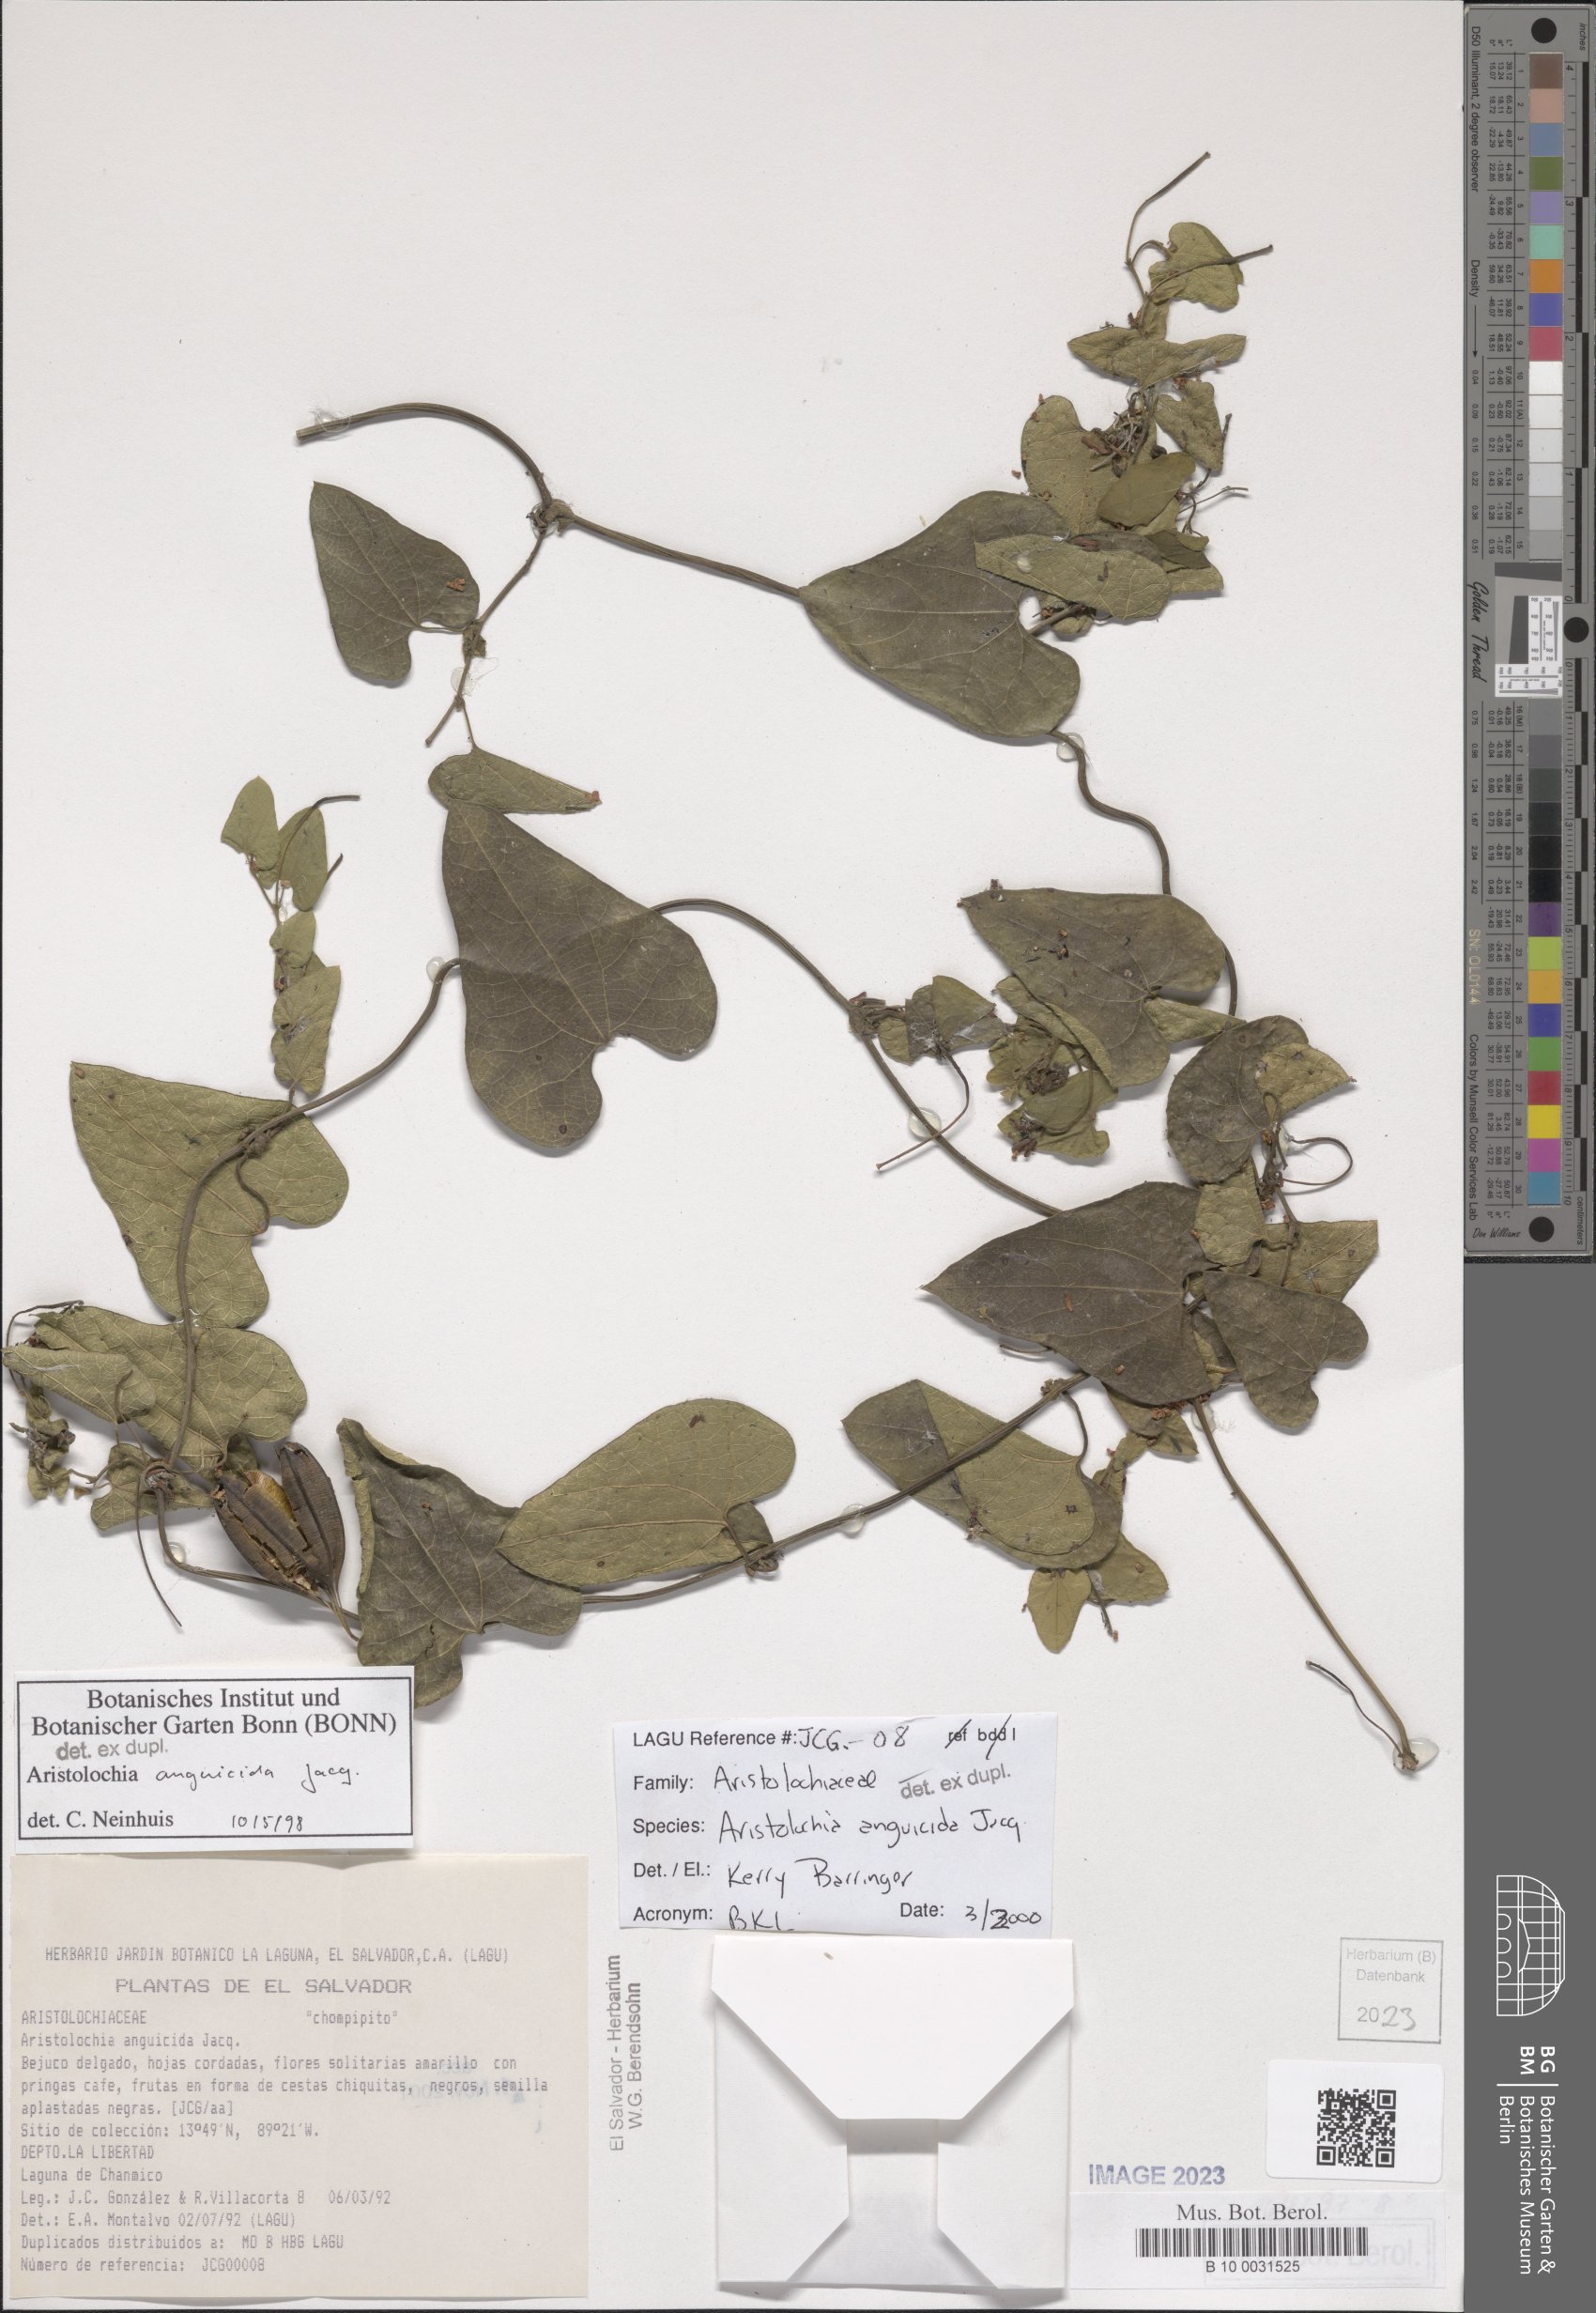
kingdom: Plantae
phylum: Tracheophyta
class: Magnoliopsida
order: Piperales
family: Aristolochiaceae
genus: Aristolochia
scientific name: Aristolochia anguicida
